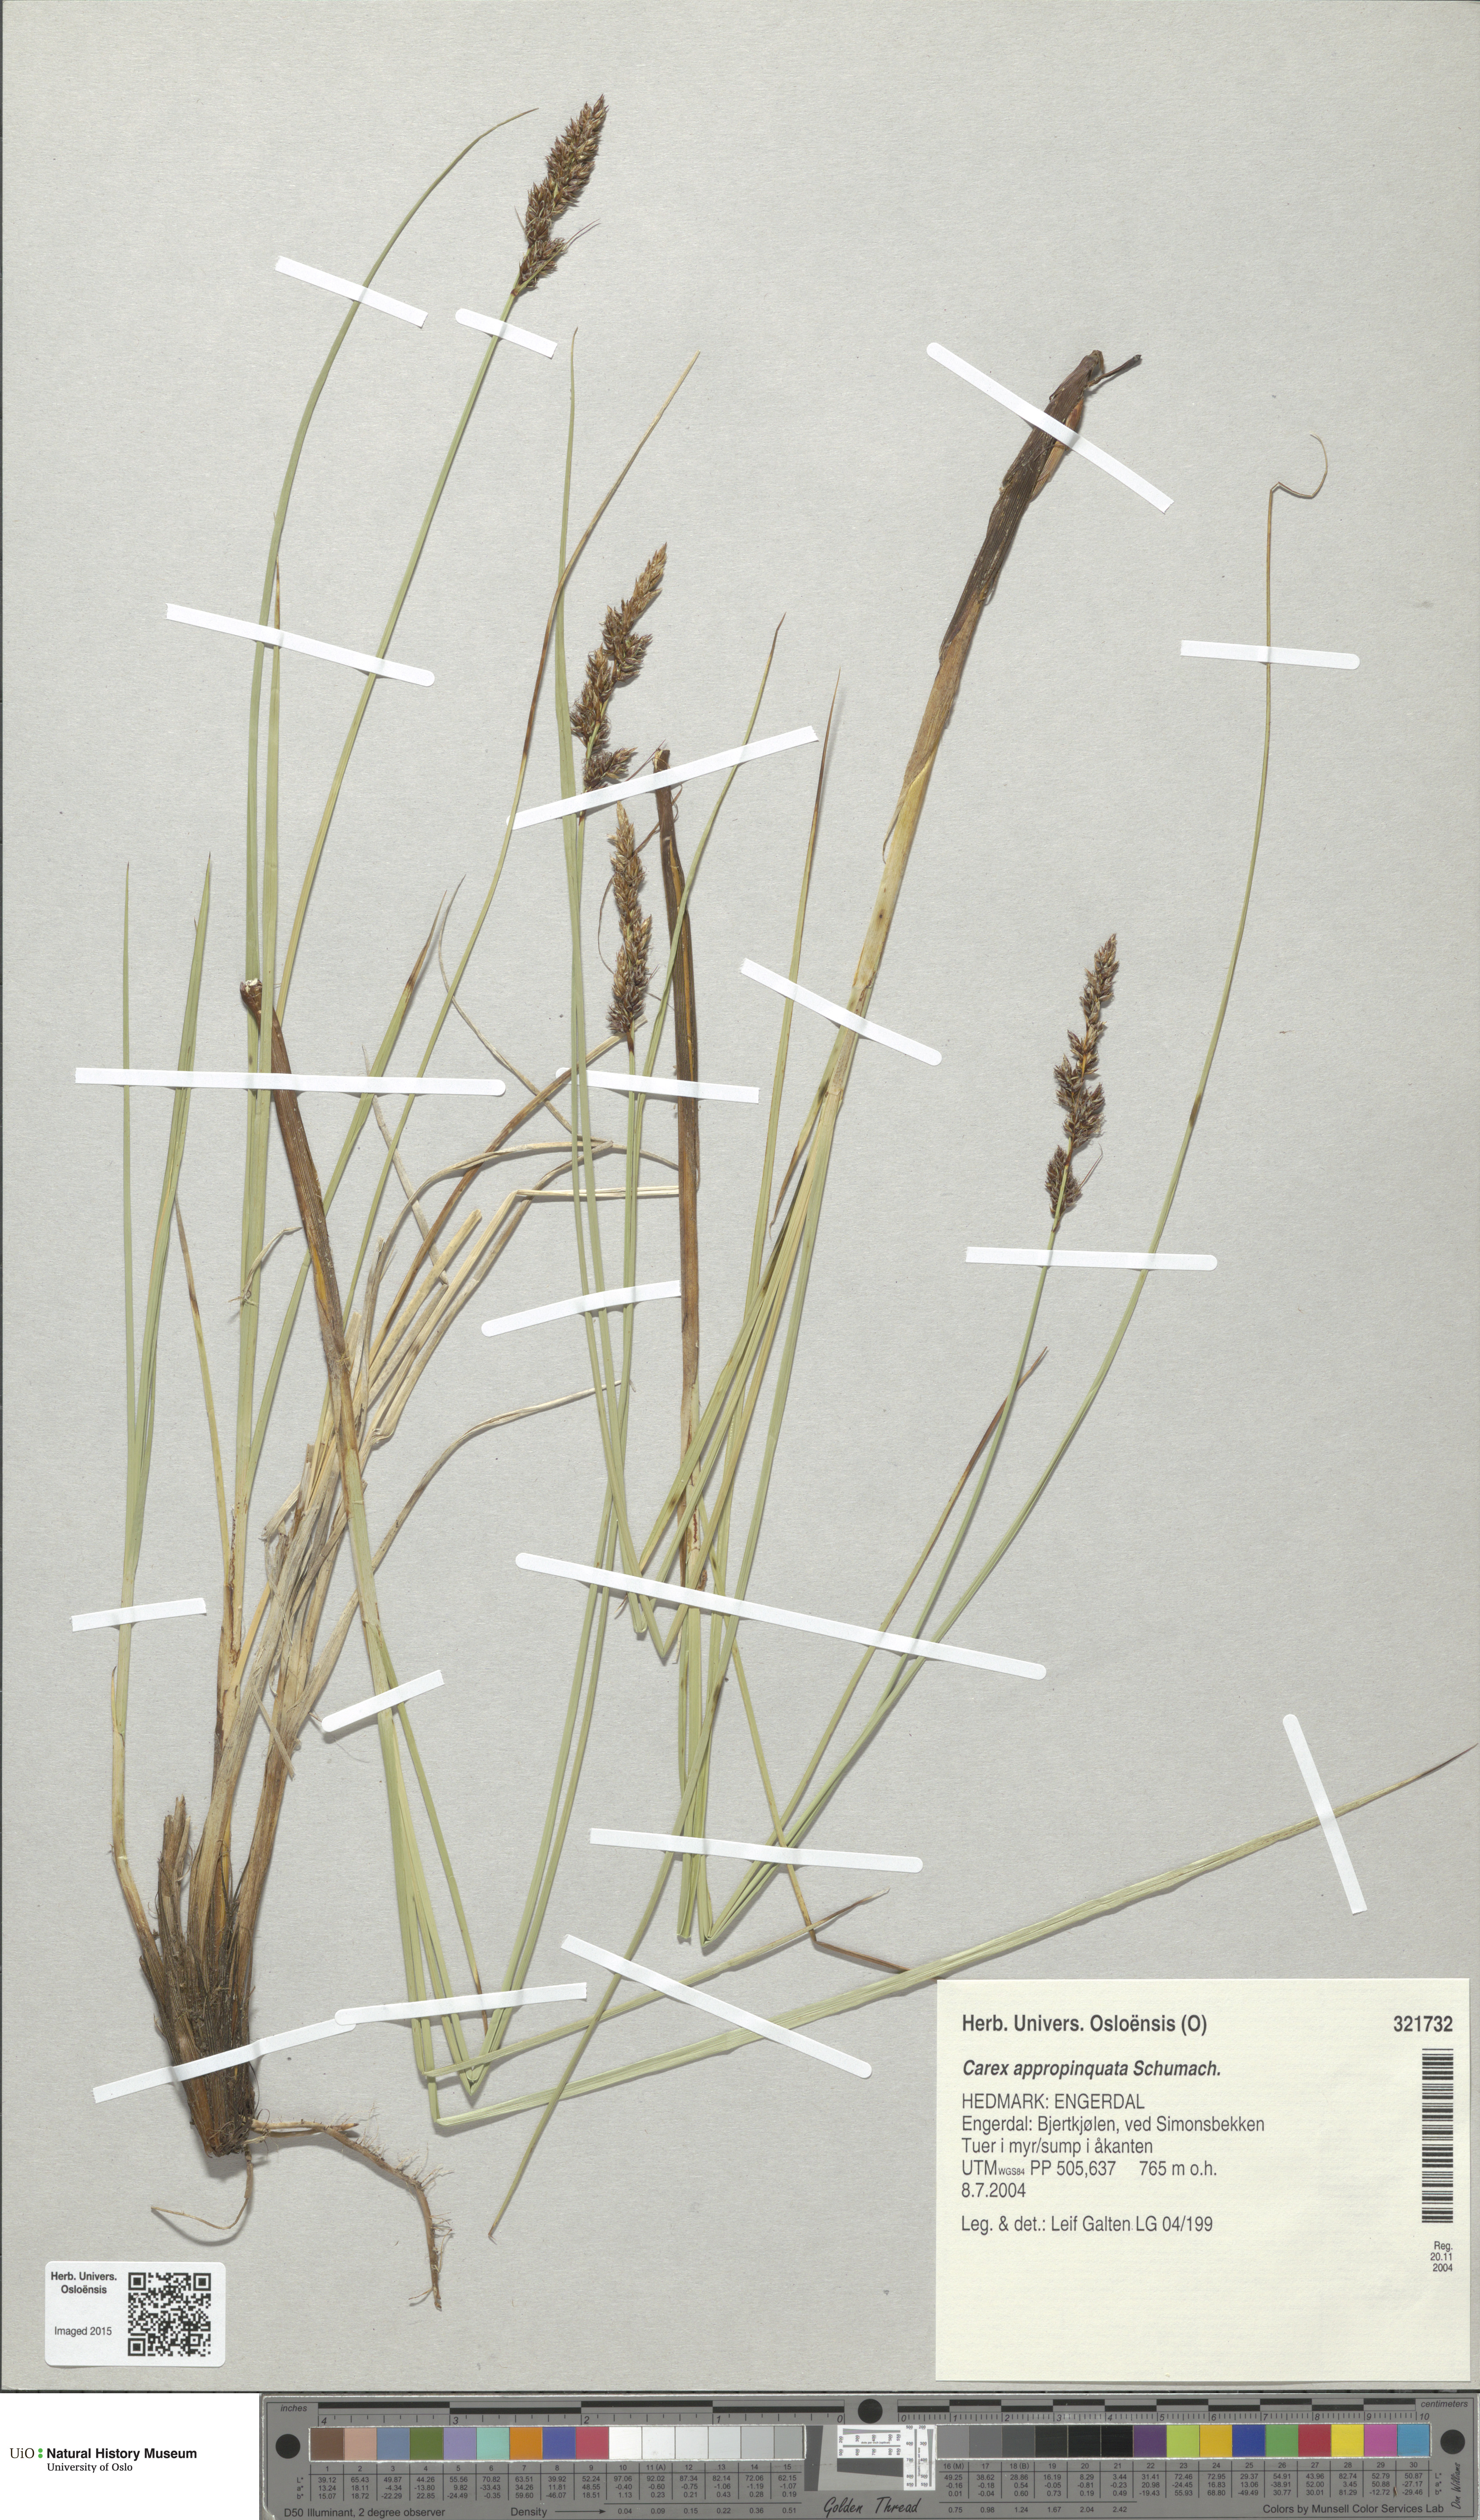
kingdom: Plantae
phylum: Tracheophyta
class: Liliopsida
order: Poales
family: Cyperaceae
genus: Carex
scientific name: Carex appropinquata
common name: Fibrous tussock-sedge
